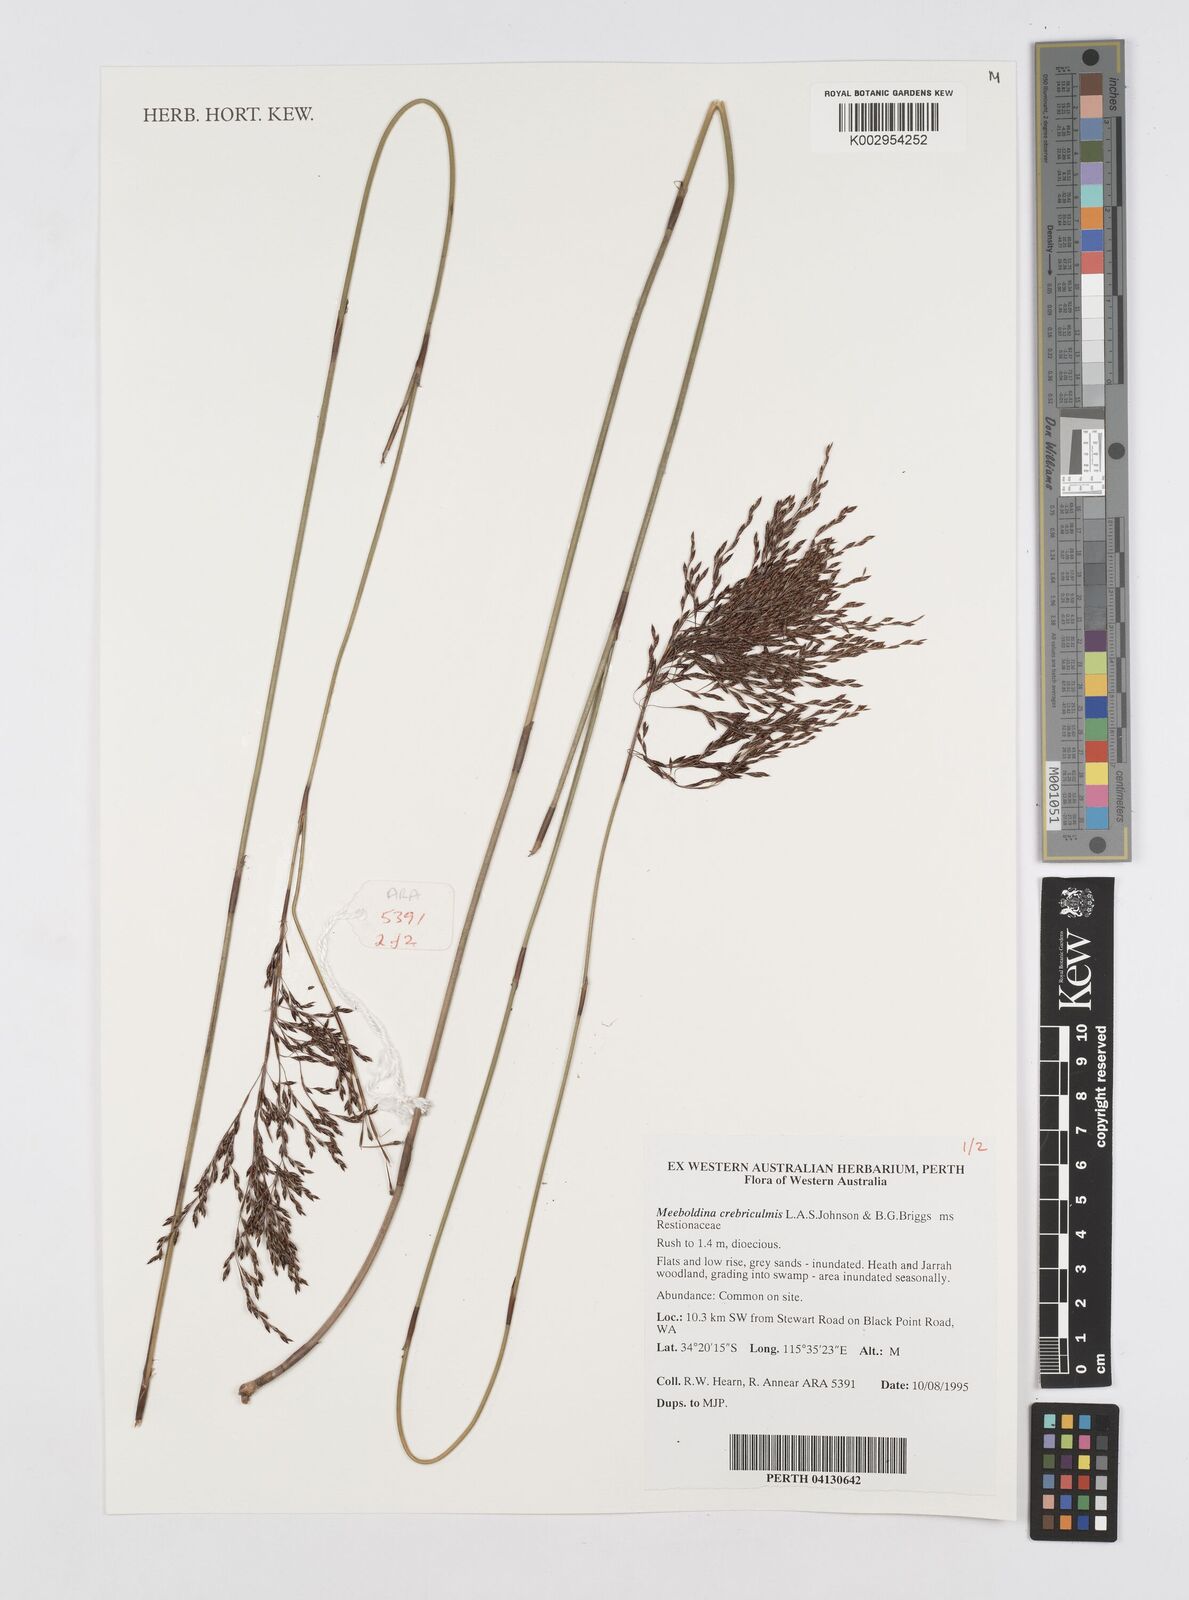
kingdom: Plantae
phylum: Tracheophyta
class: Liliopsida
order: Poales
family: Restionaceae
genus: Leptocarpus
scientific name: Leptocarpus crebriculmis
